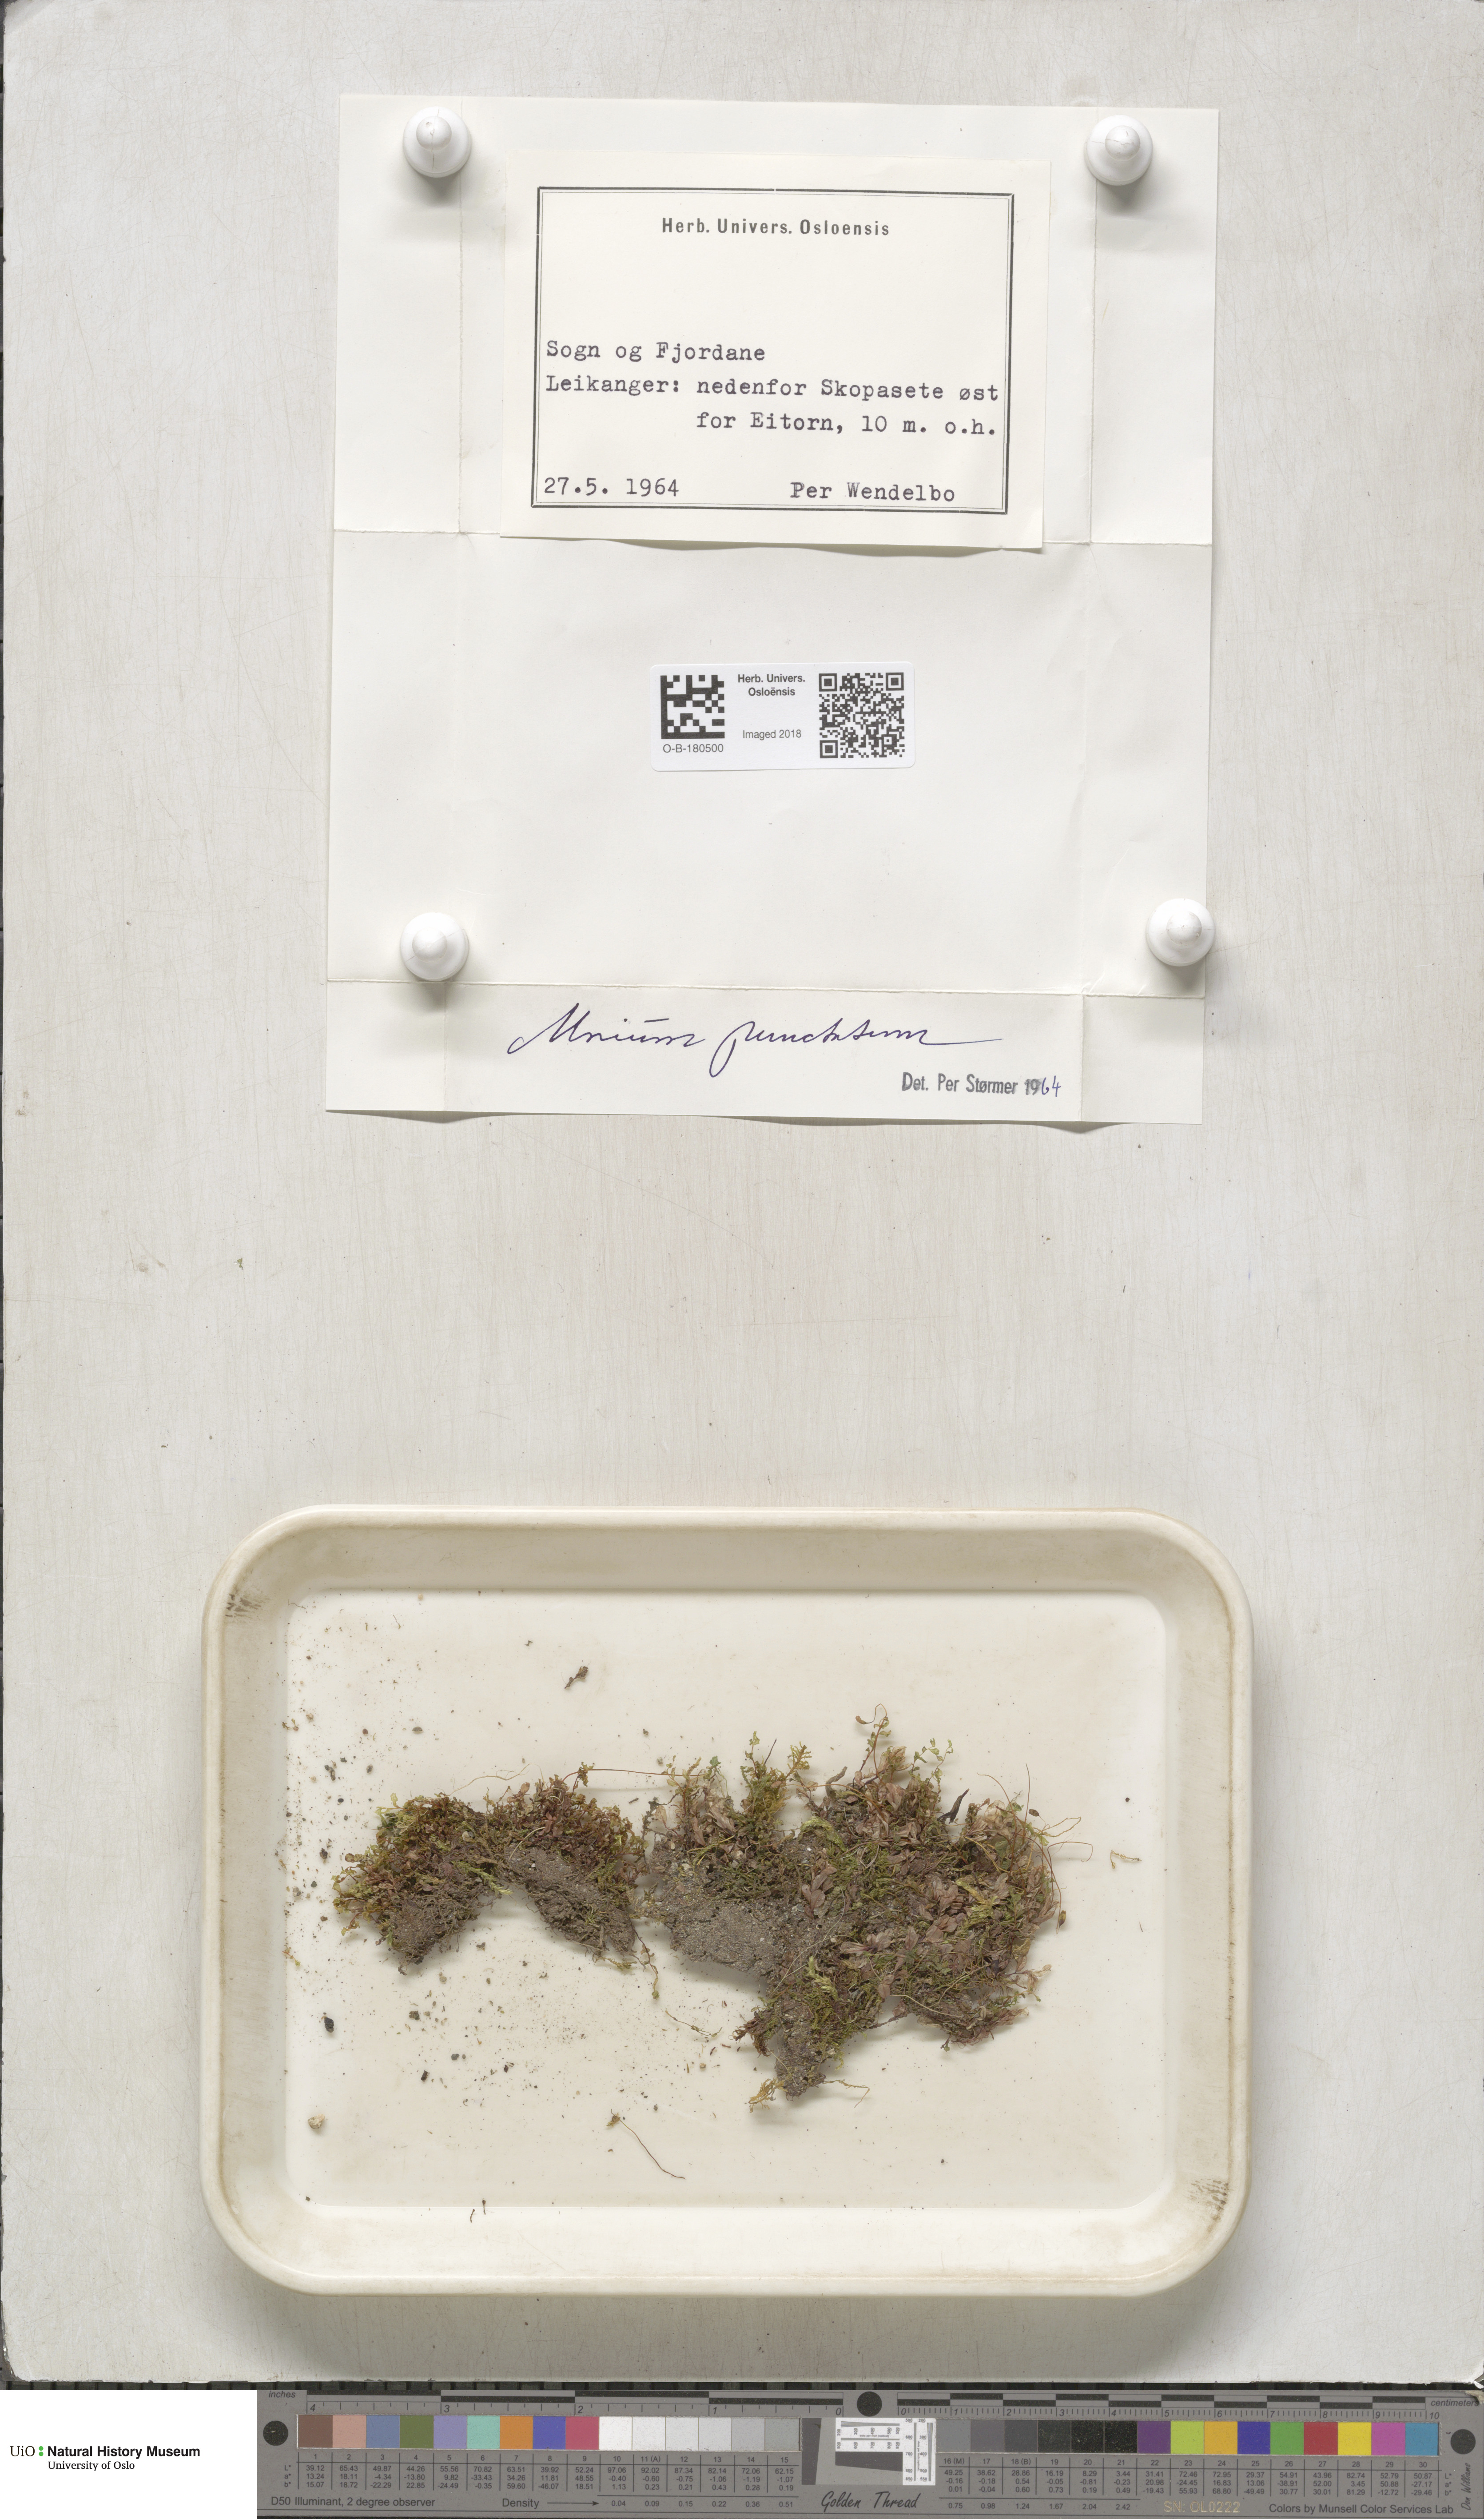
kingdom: Plantae
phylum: Bryophyta
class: Bryopsida
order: Bryales
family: Mniaceae
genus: Rhizomnium
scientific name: Rhizomnium punctatum
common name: Dotted leafy moss
